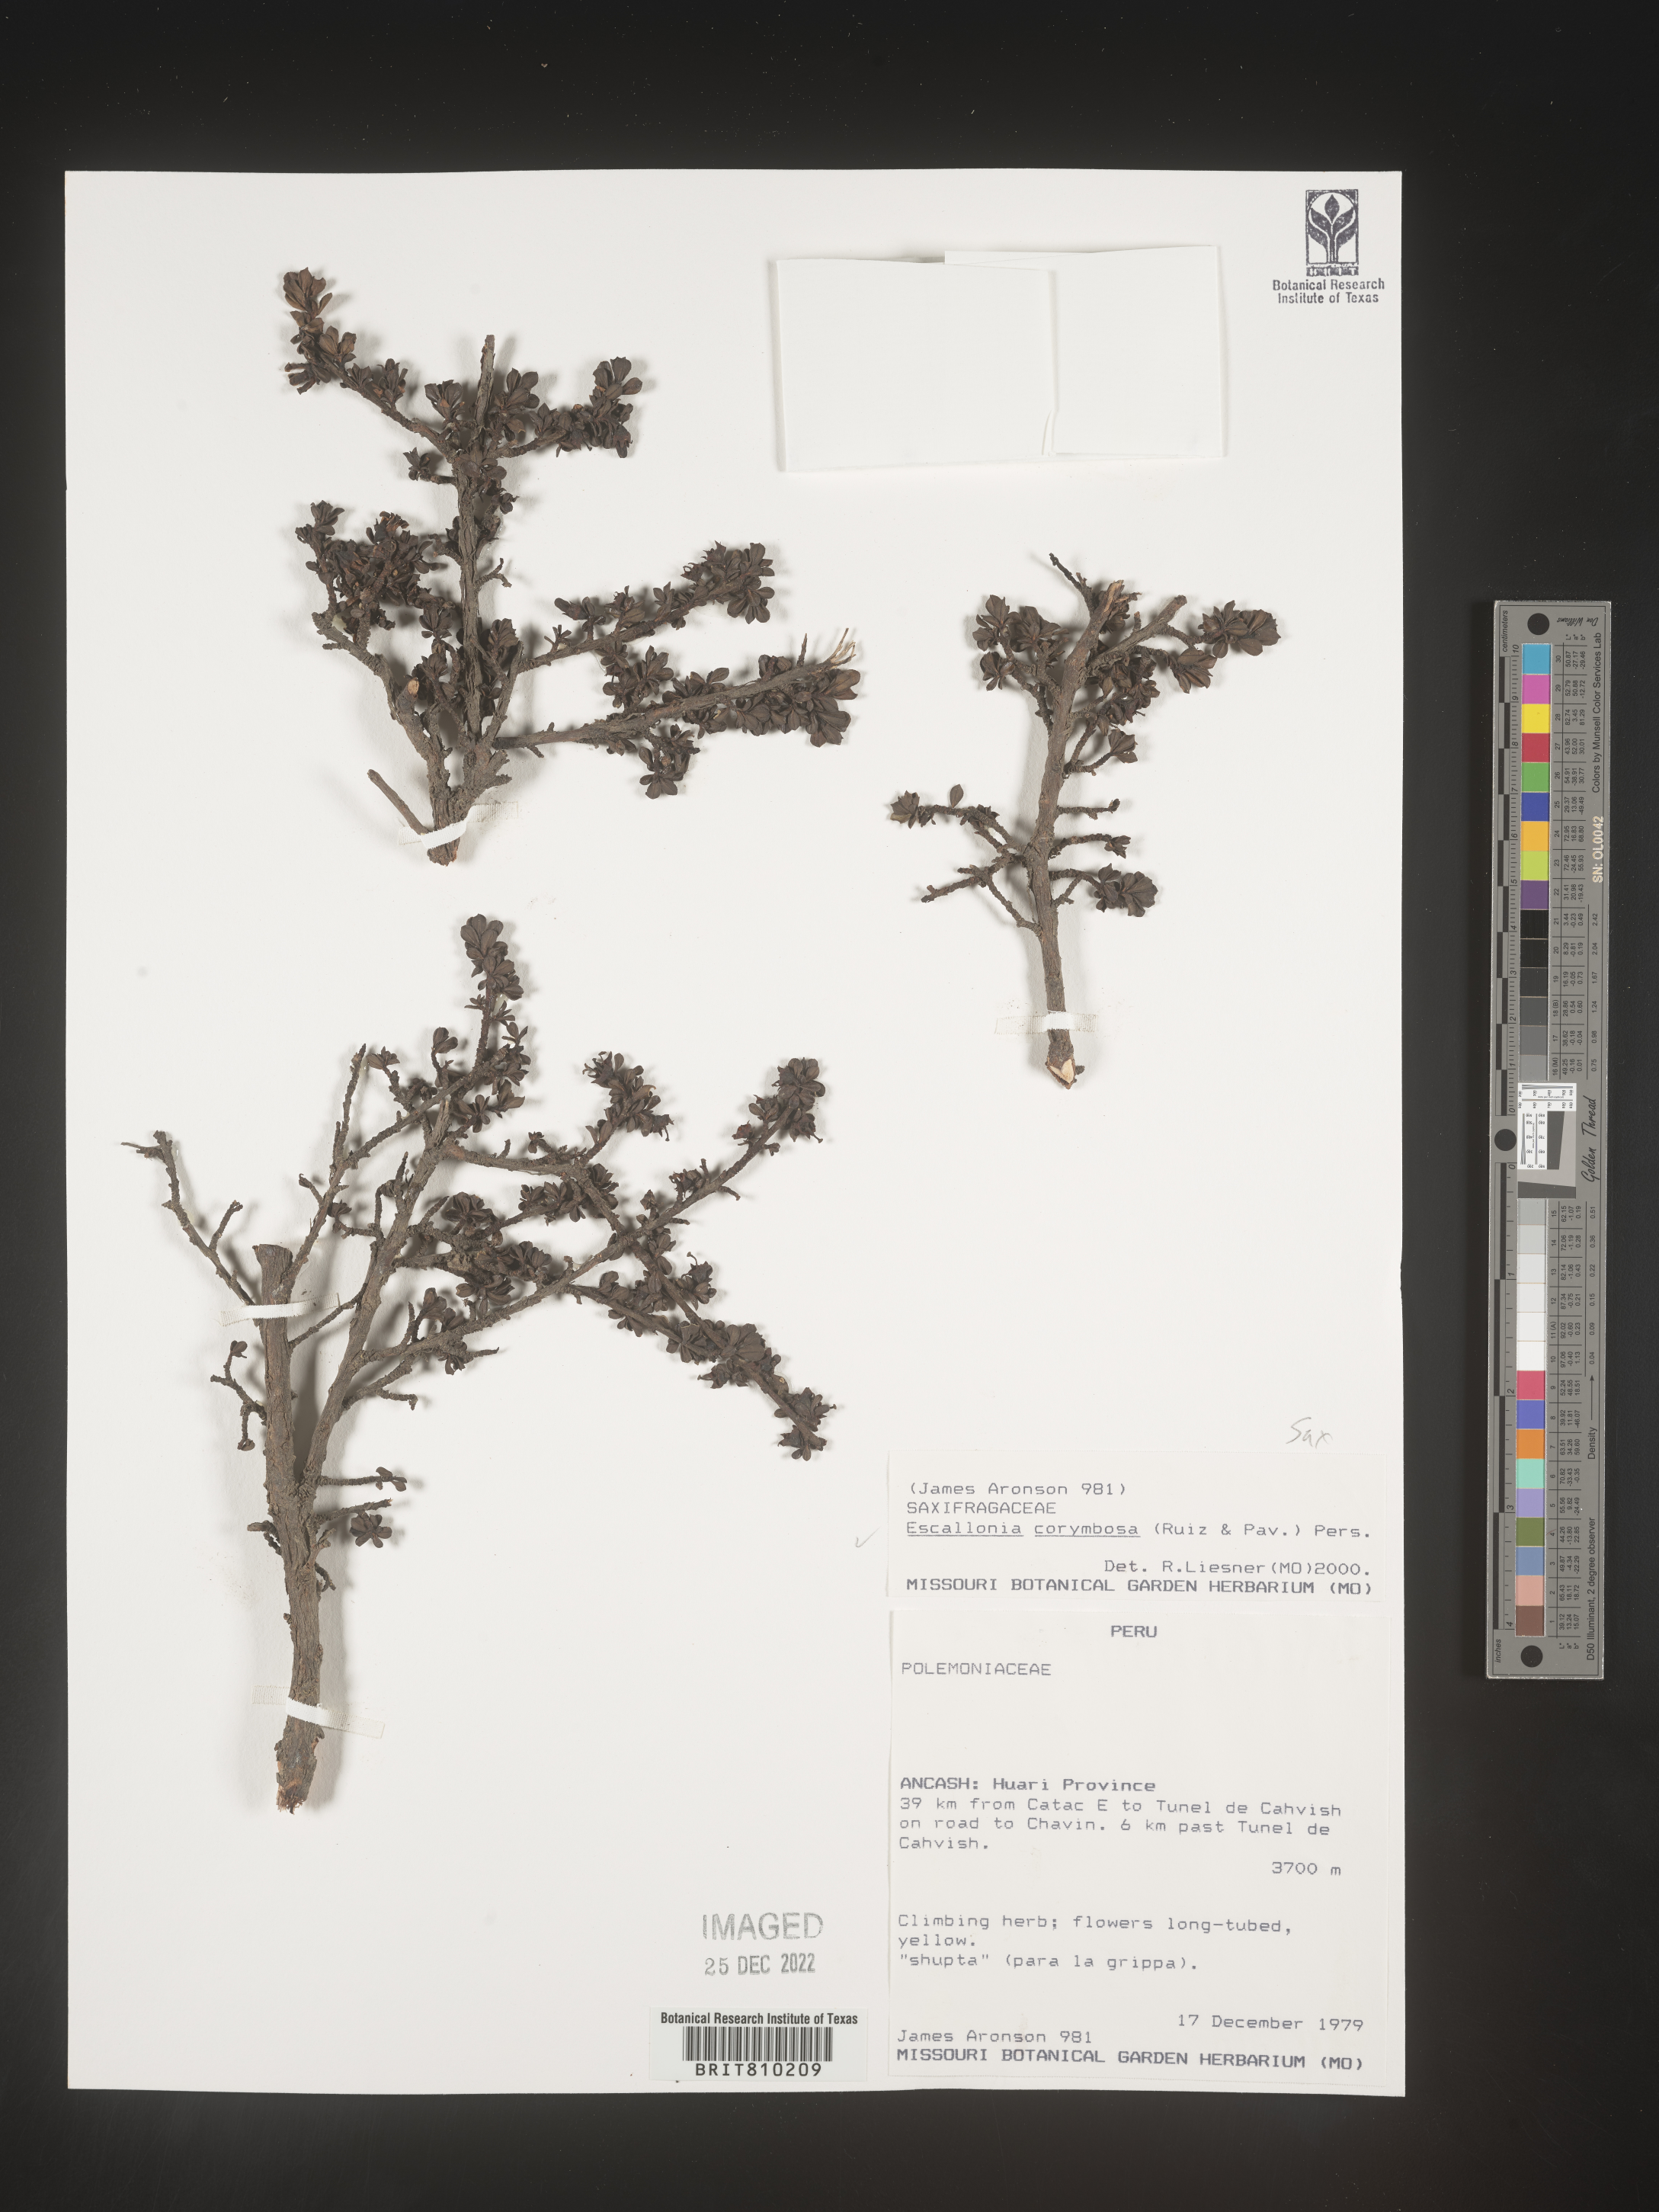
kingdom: Plantae
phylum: Tracheophyta
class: Magnoliopsida
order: Escalloniales
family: Escalloniaceae
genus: Escallonia
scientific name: Escallonia
